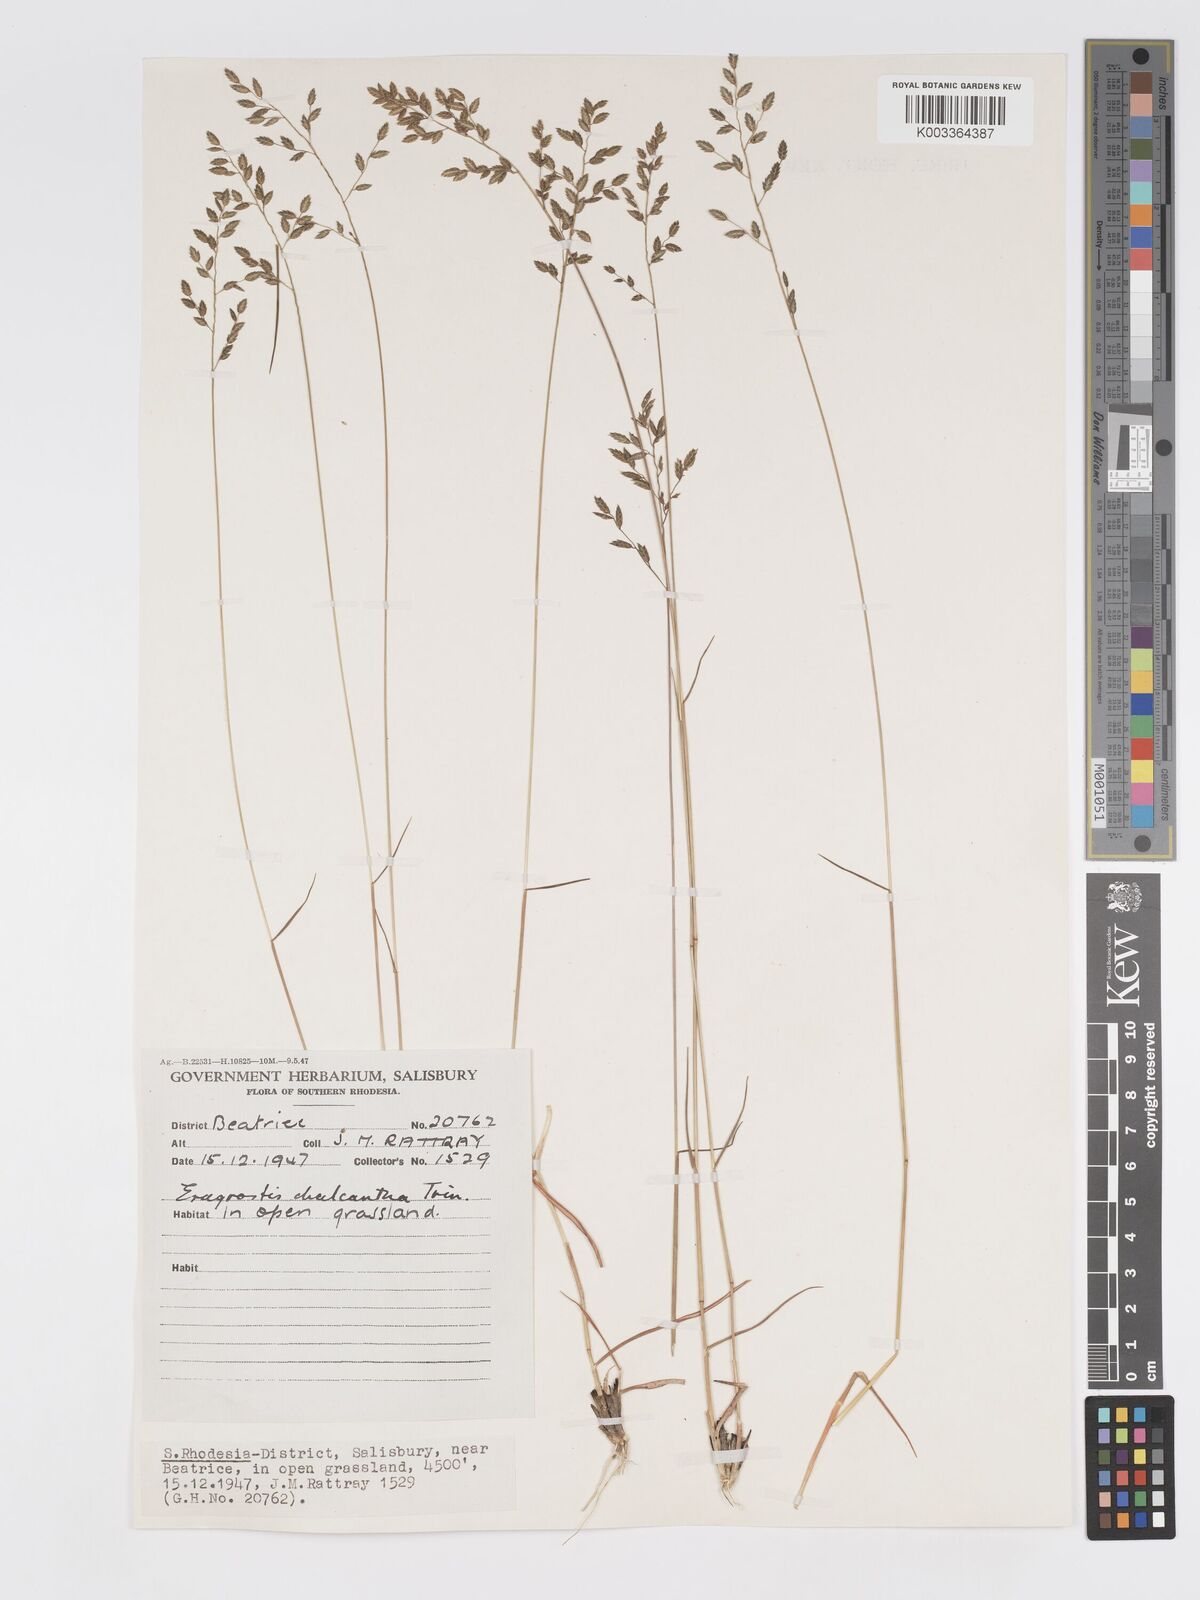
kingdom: Plantae
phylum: Tracheophyta
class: Liliopsida
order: Poales
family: Poaceae
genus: Eragrostis
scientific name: Eragrostis racemosa
